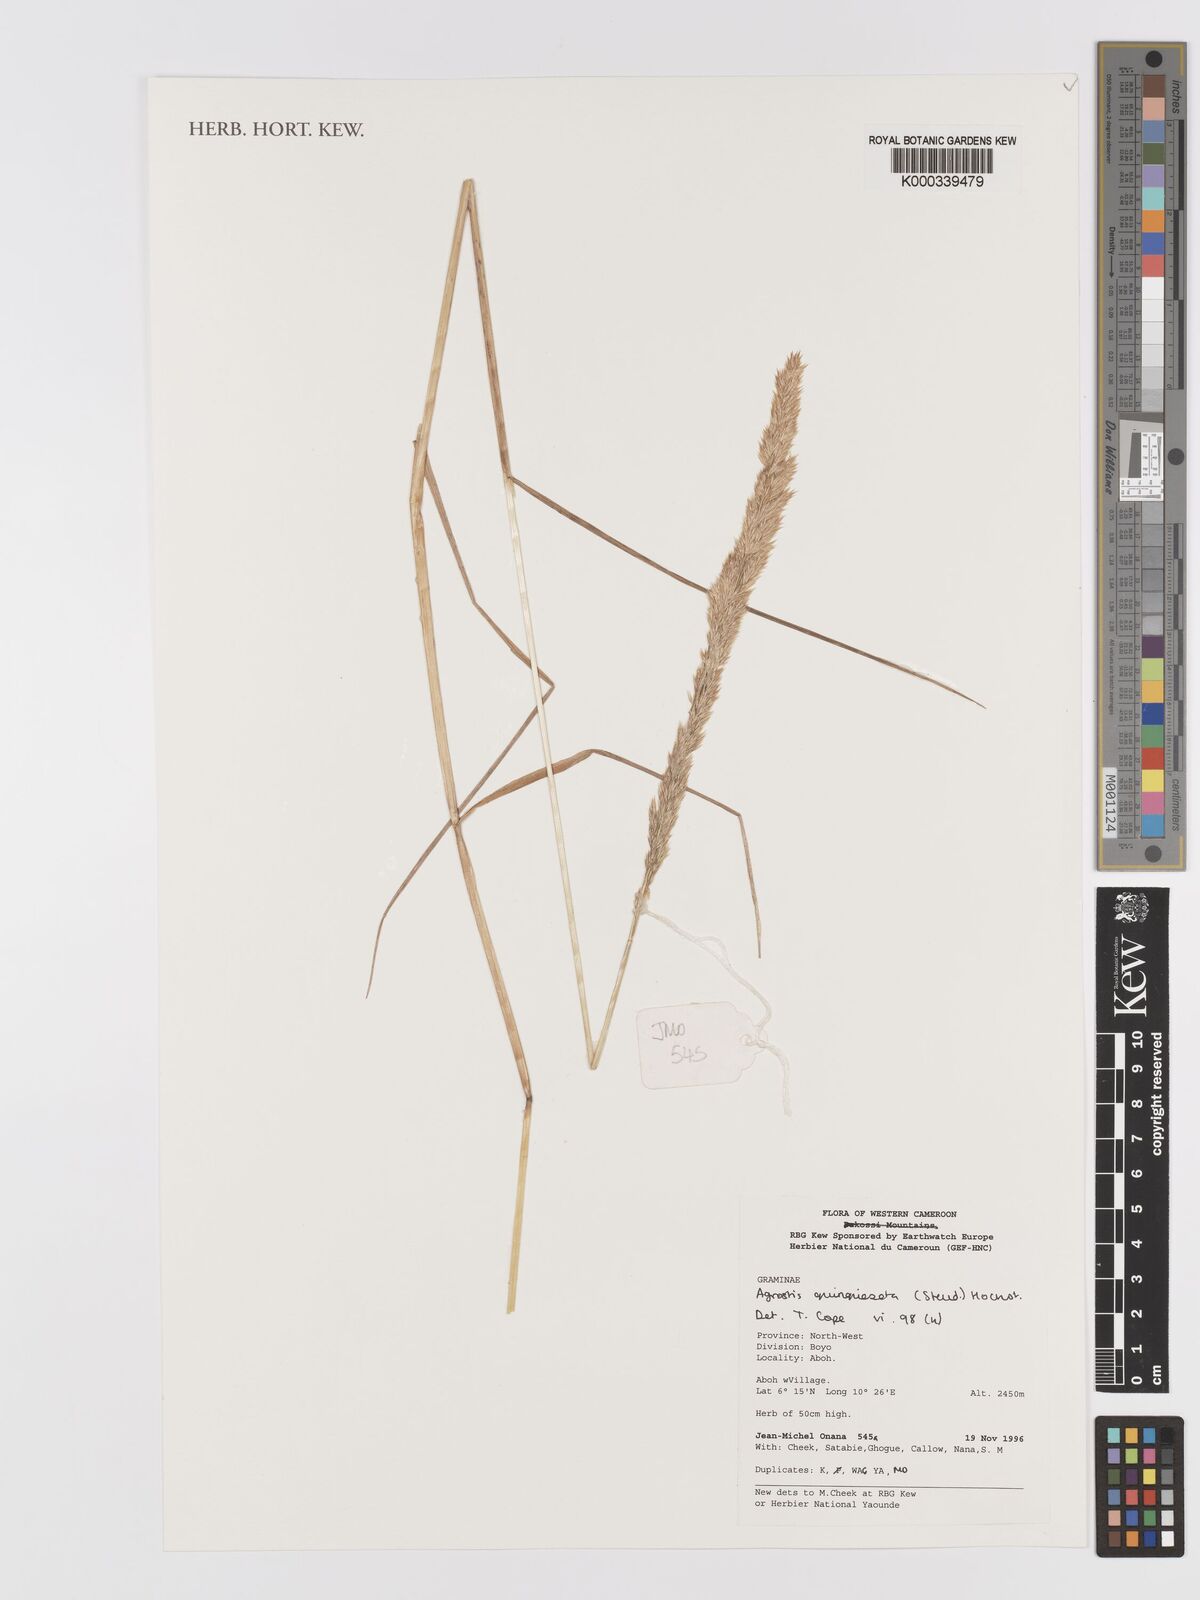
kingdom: Plantae
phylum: Tracheophyta
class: Liliopsida
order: Poales
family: Poaceae
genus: Agrostis
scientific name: Agrostis quinqueseta
